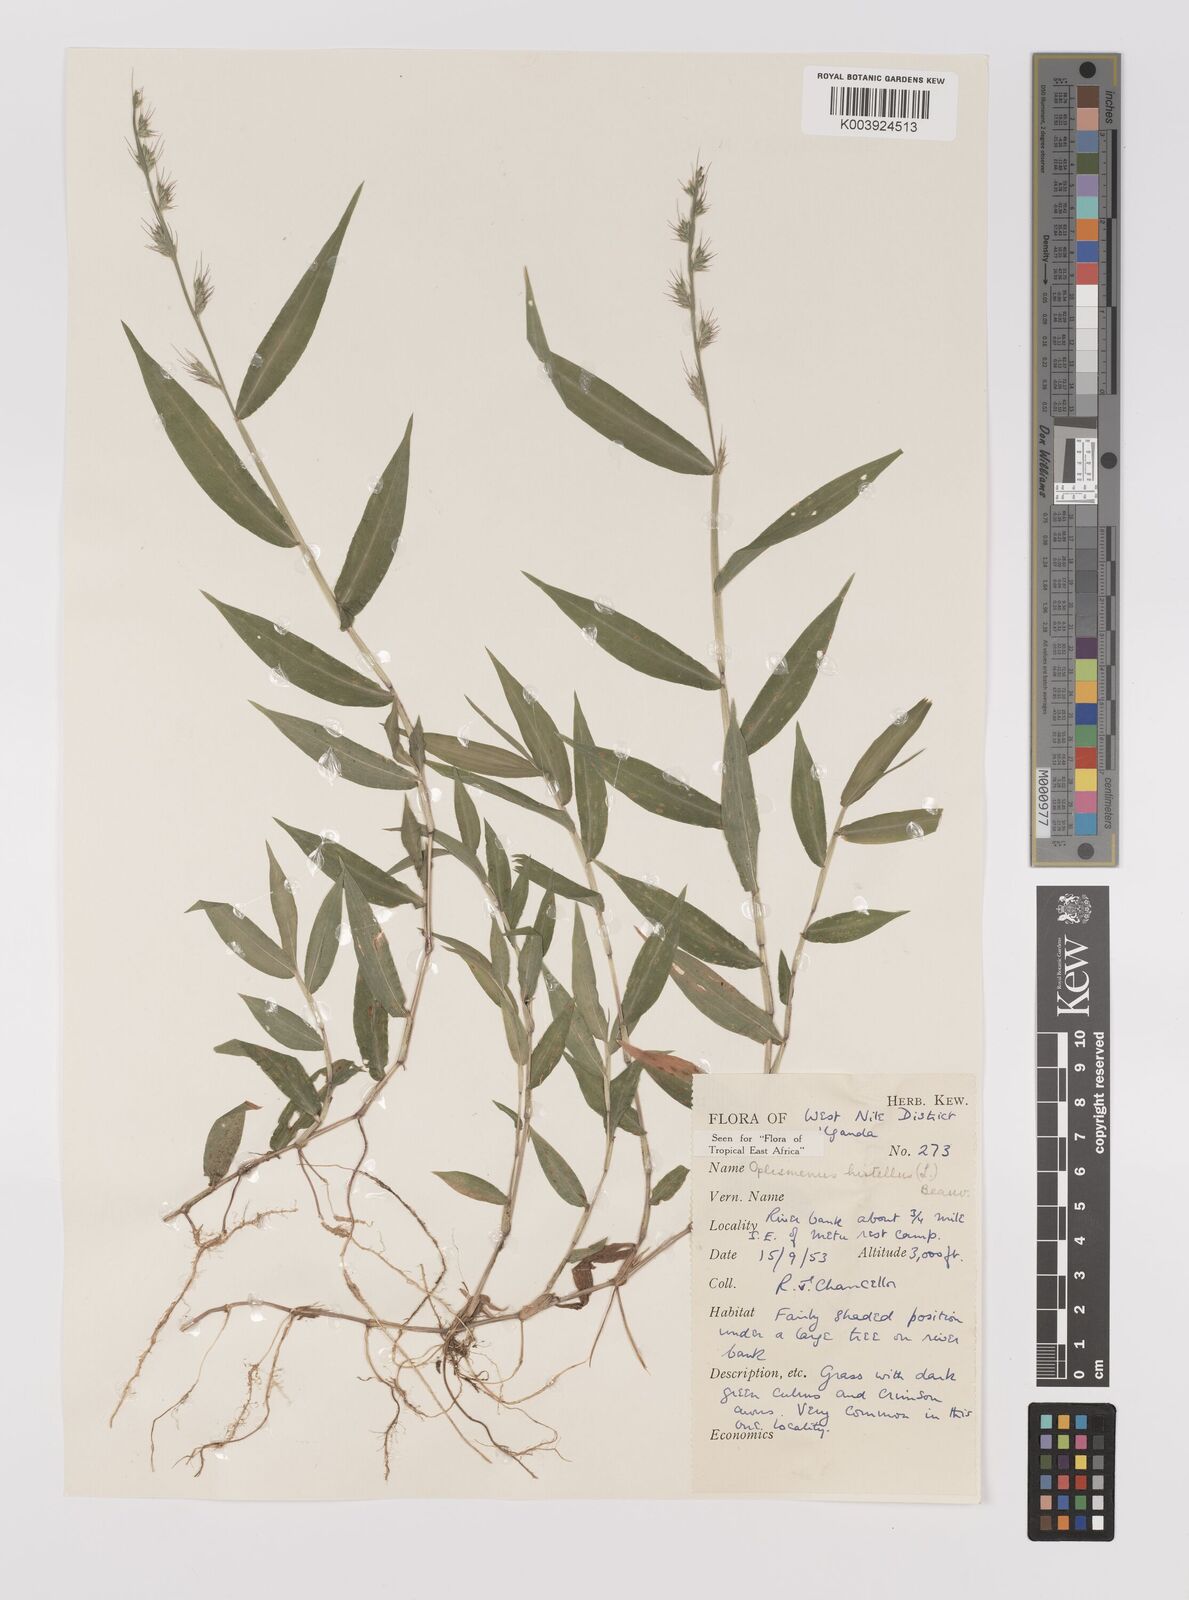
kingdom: Plantae
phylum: Tracheophyta
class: Liliopsida
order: Poales
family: Poaceae
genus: Oplismenus
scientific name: Oplismenus hirtellus
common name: Basketgrass
